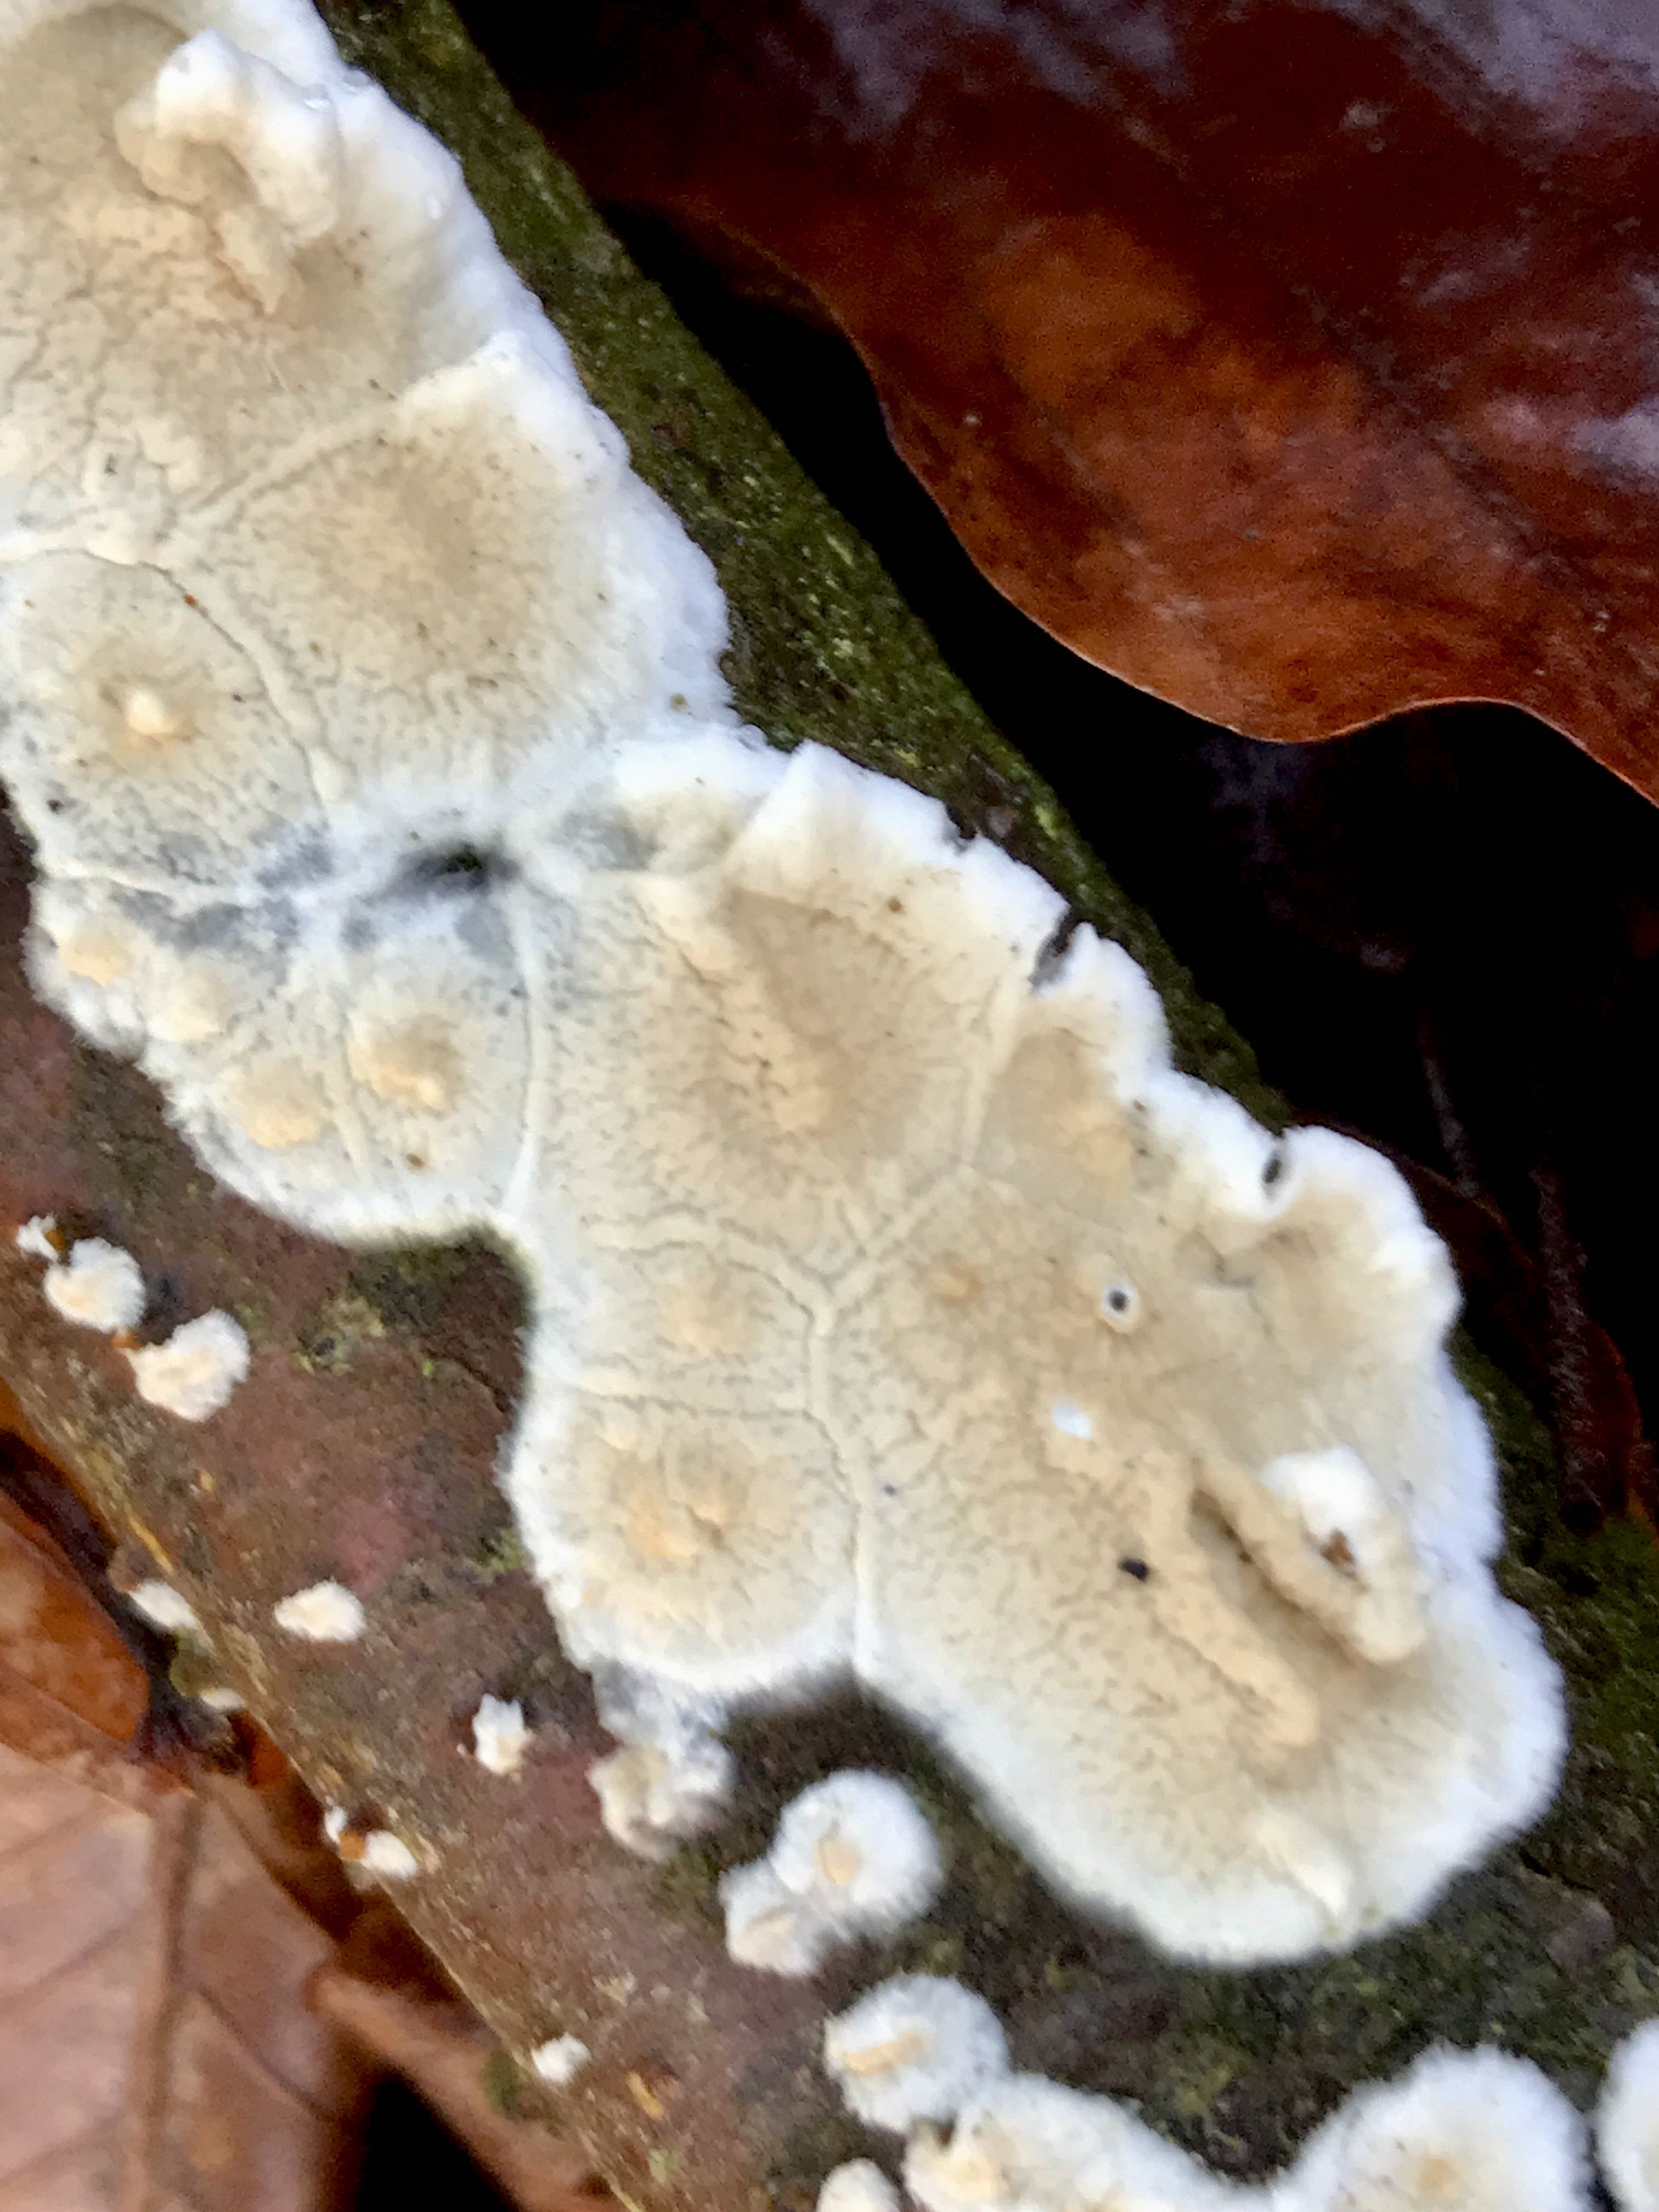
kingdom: Fungi
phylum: Basidiomycota
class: Agaricomycetes
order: Polyporales
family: Irpicaceae
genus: Byssomerulius
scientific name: Byssomerulius corium
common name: læder-åresvamp
